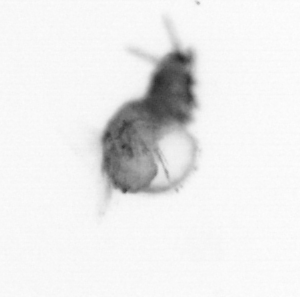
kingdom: Animalia
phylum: Annelida
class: Polychaeta
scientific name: Polychaeta
